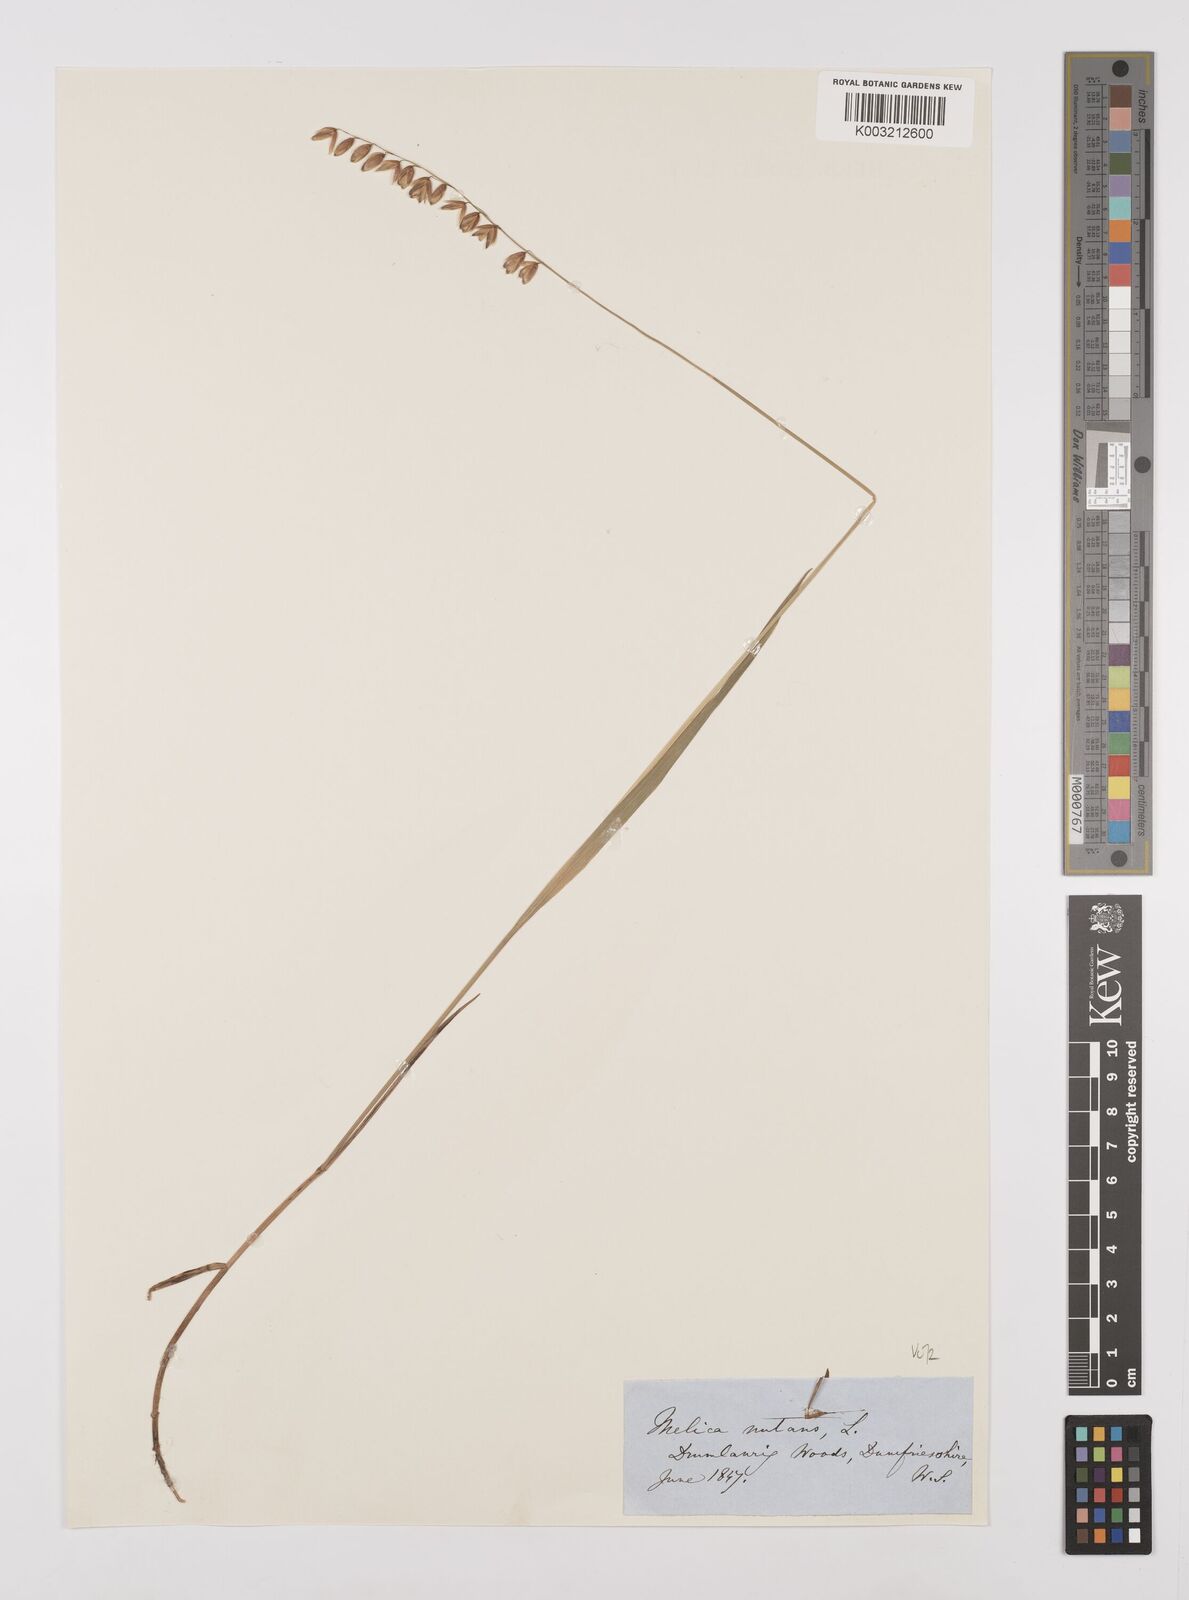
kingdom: Plantae
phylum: Tracheophyta
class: Liliopsida
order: Poales
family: Poaceae
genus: Melica
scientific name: Melica
